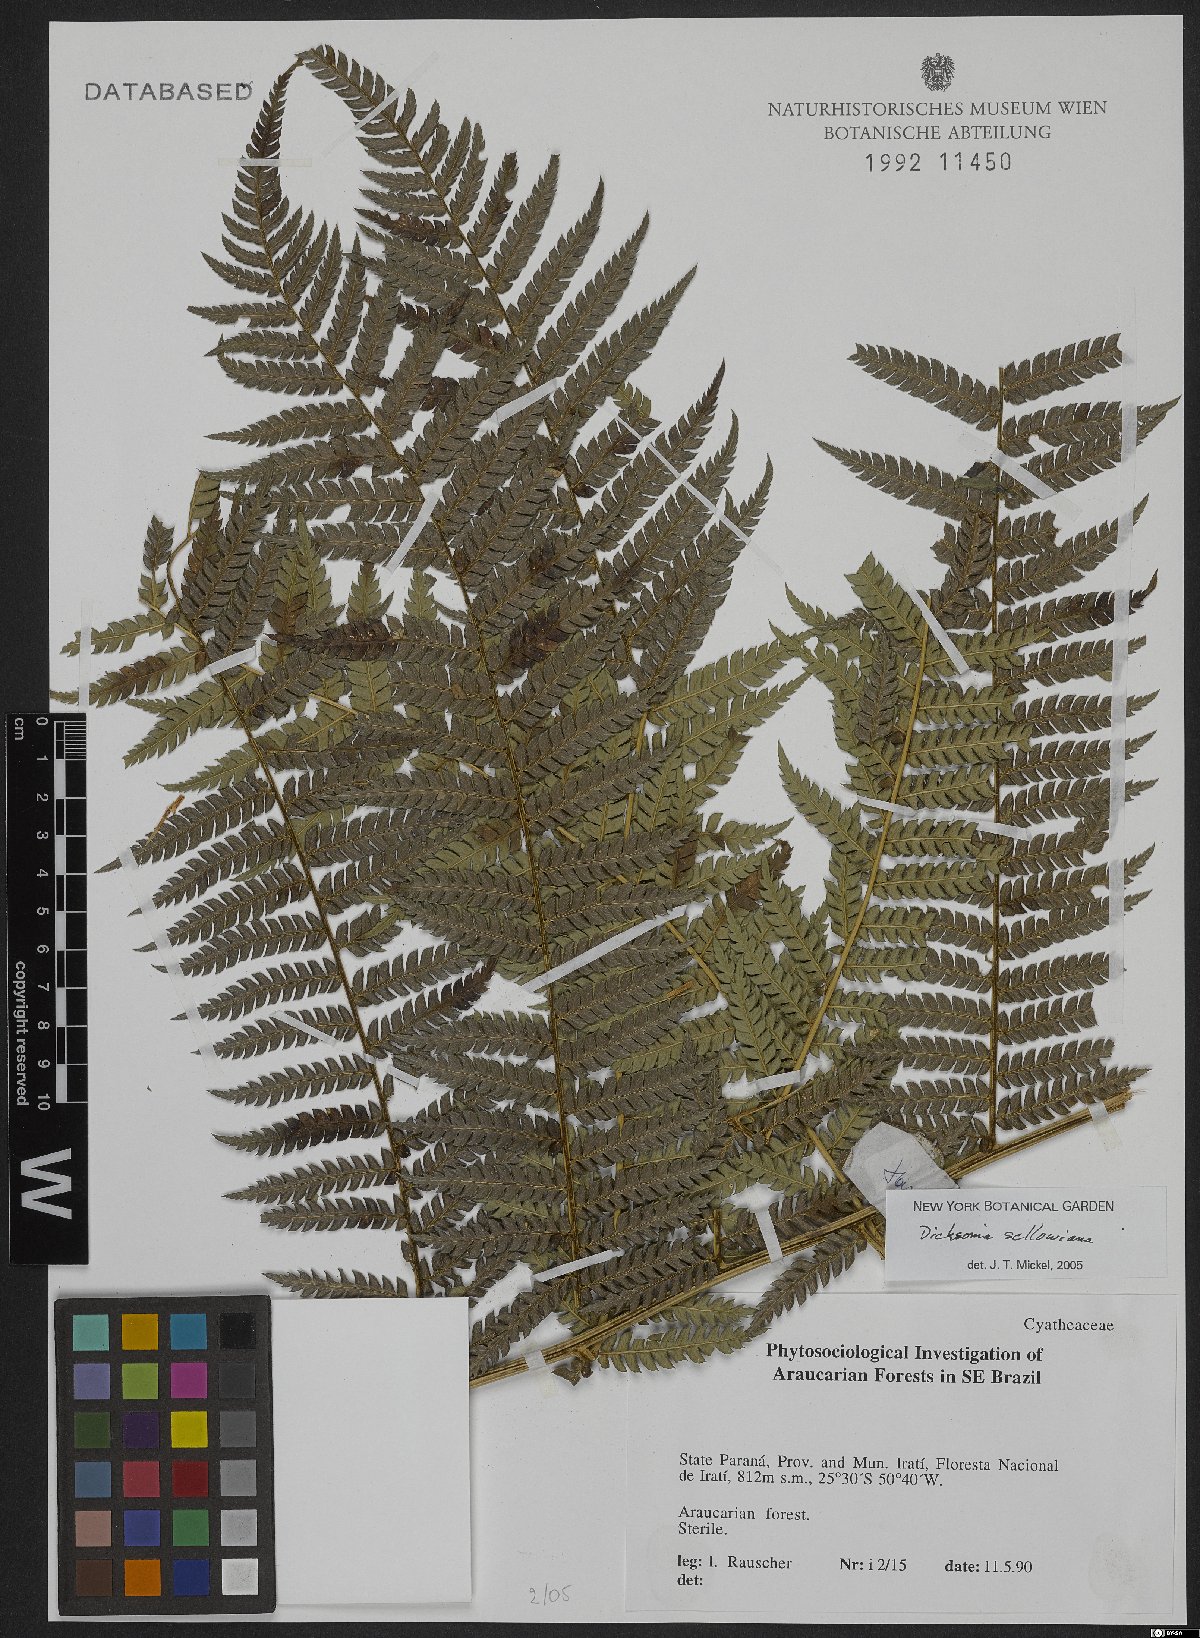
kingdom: Plantae
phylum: Tracheophyta
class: Polypodiopsida
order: Cyatheales
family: Dicksoniaceae
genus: Dicksonia
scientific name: Dicksonia sellowiana
